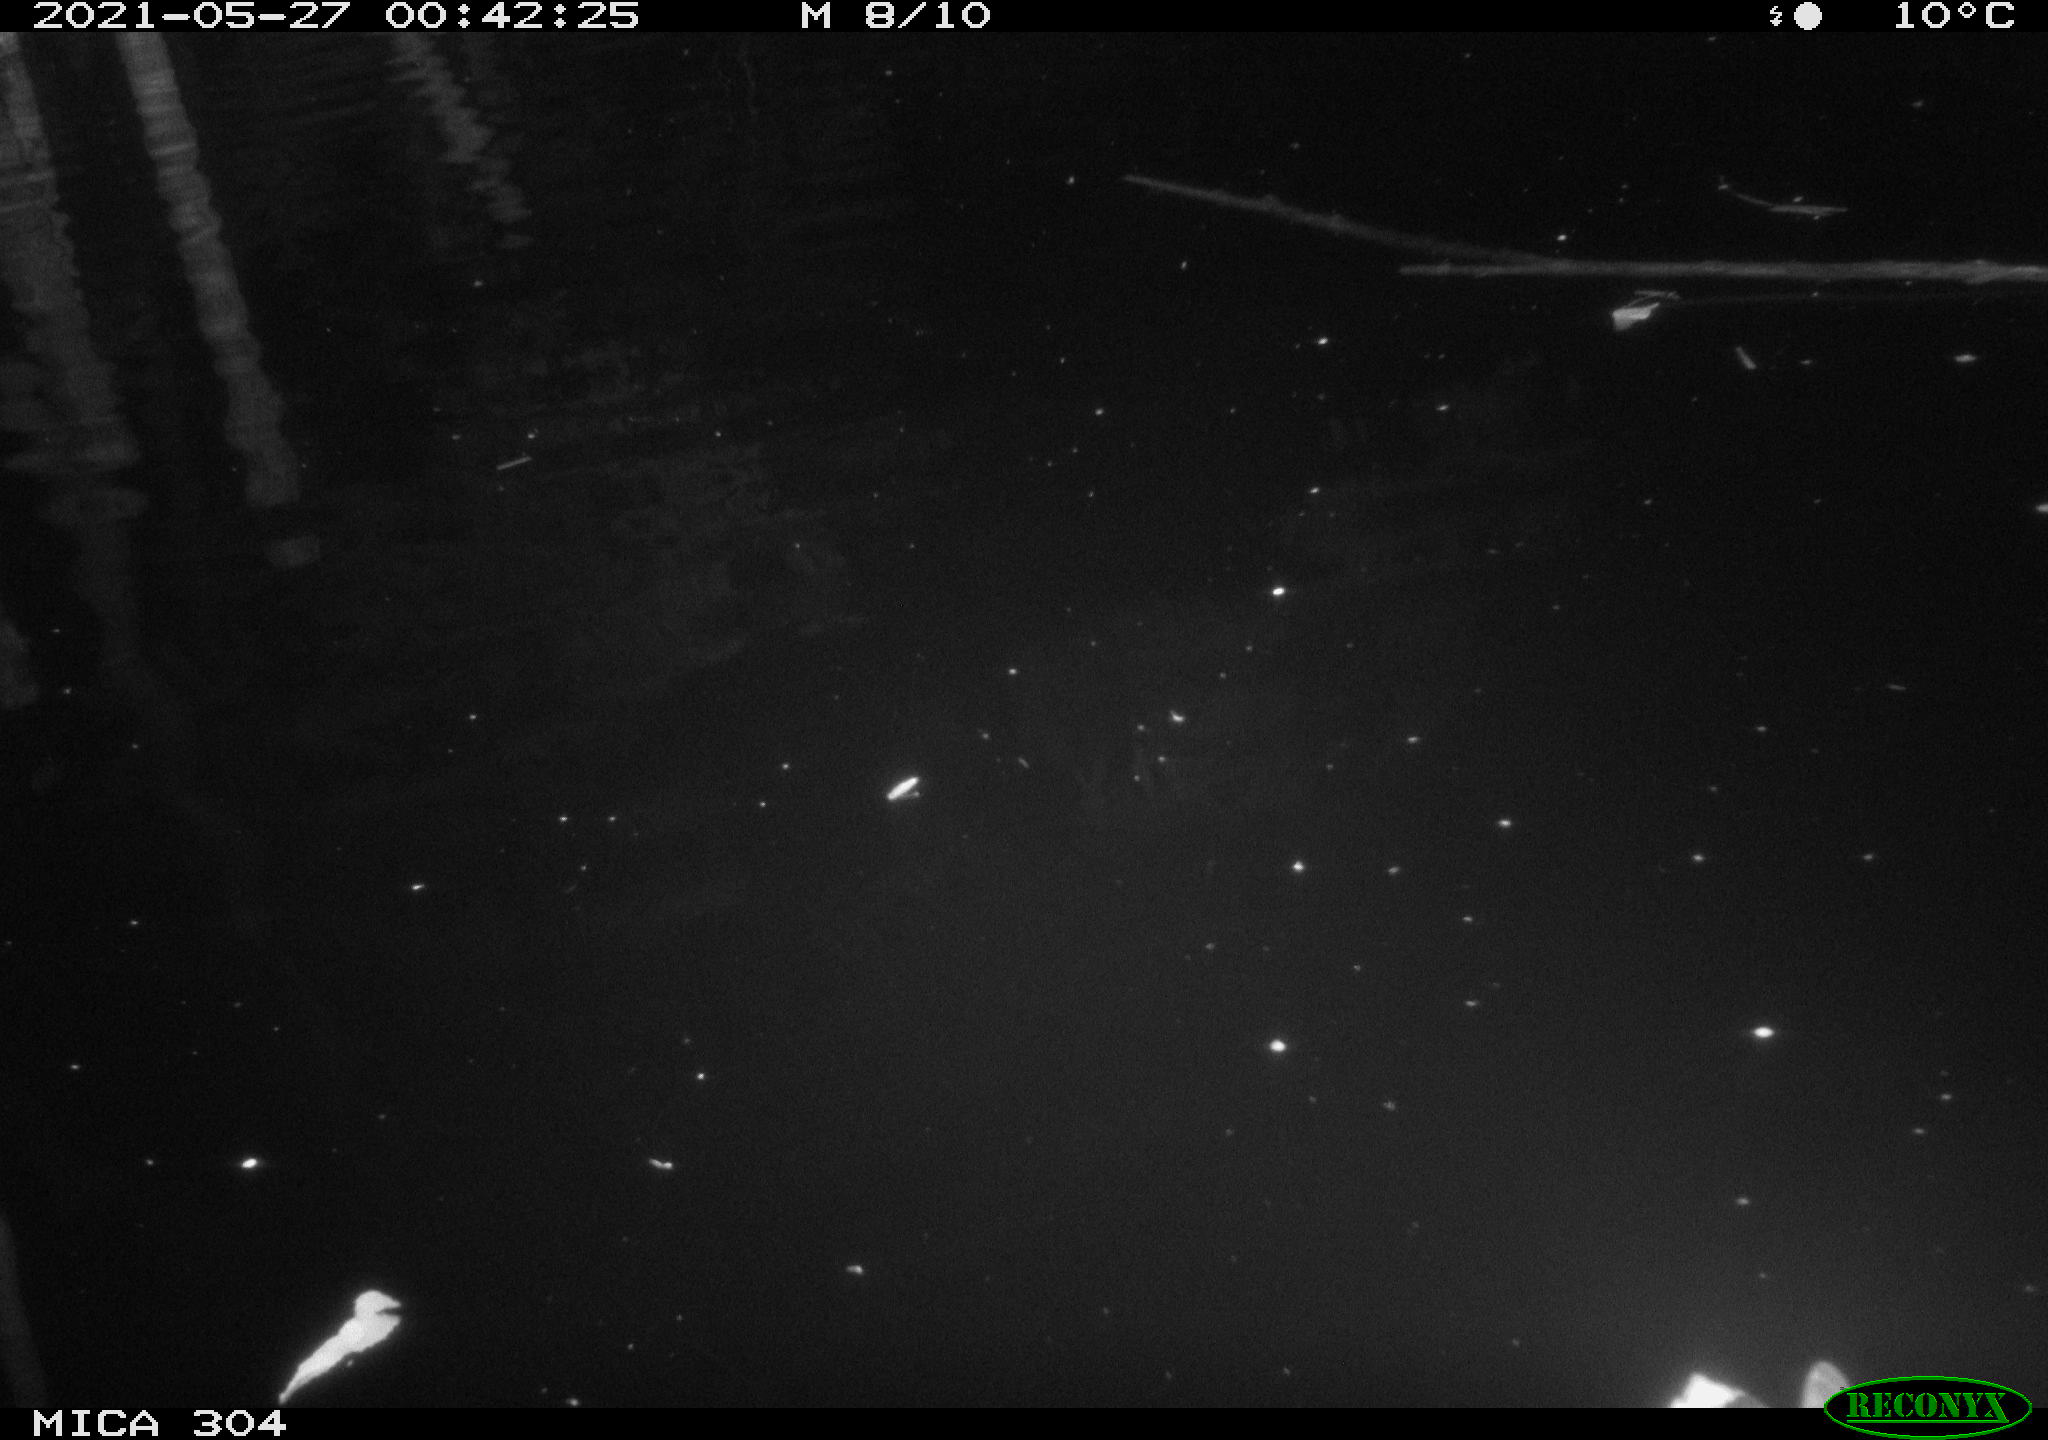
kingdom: Animalia
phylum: Chordata
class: Aves
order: Anseriformes
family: Anatidae
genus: Anas
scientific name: Anas platyrhynchos
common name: Mallard
